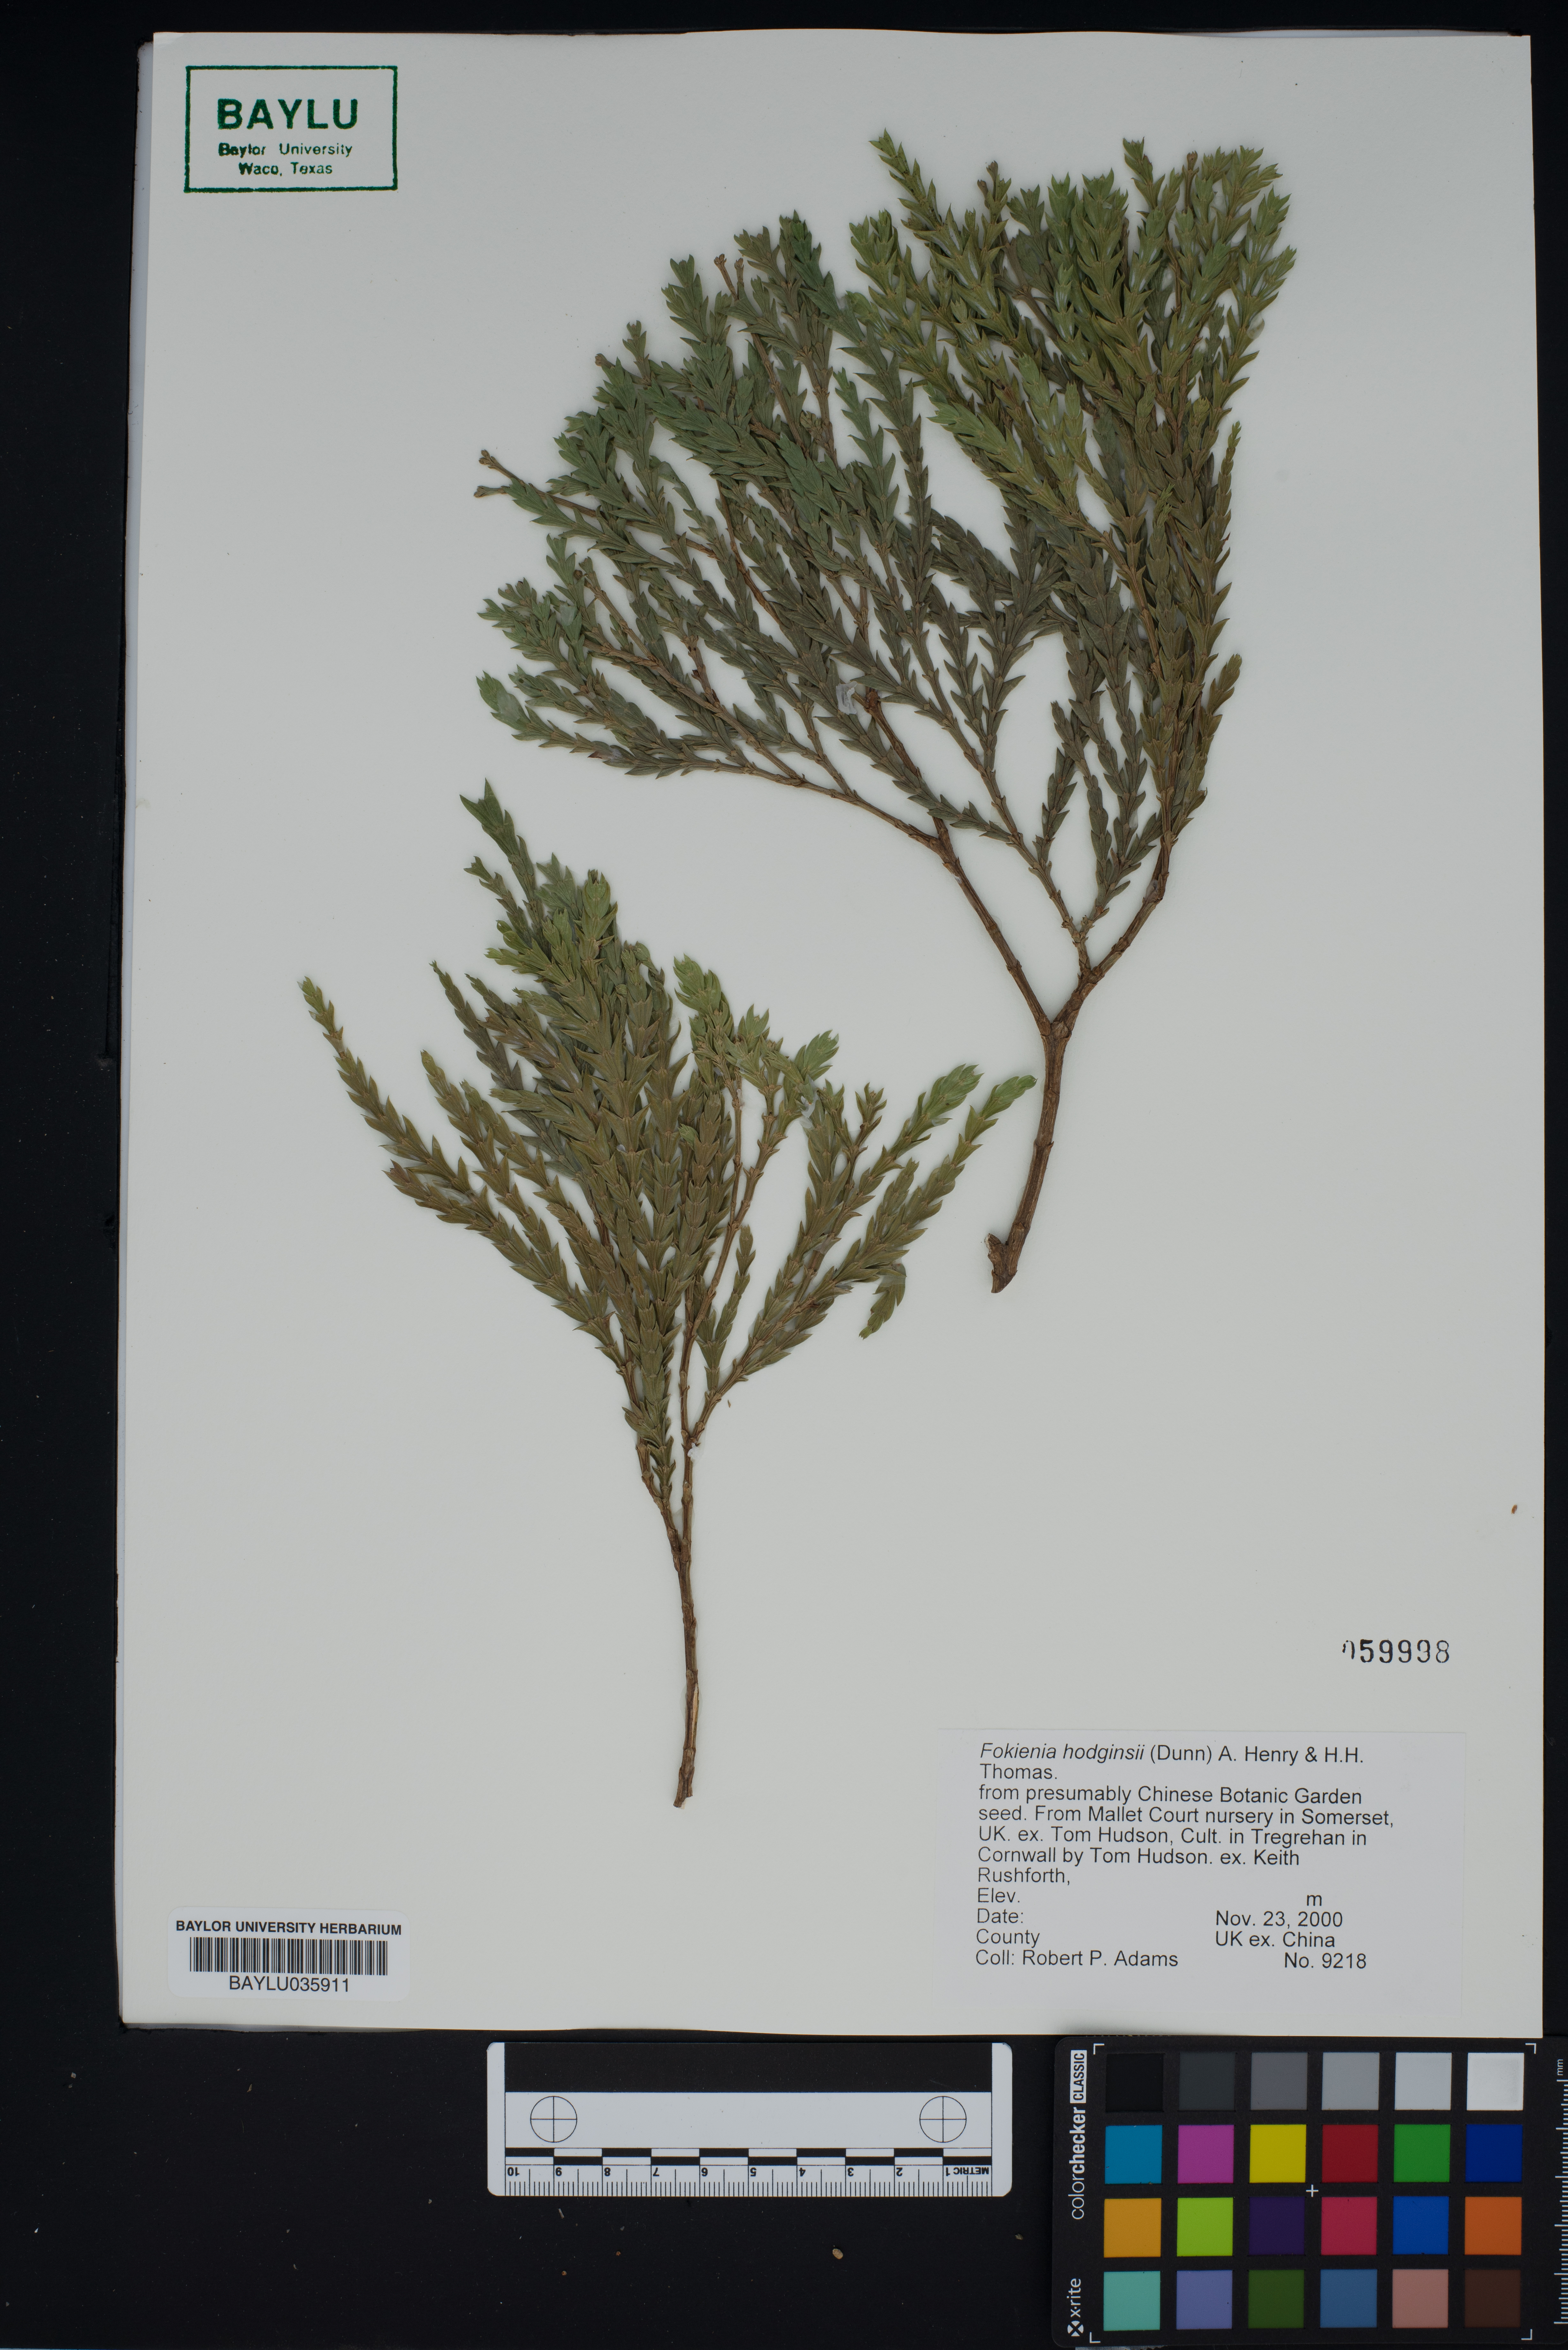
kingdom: Plantae
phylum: Tracheophyta
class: Pinopsida
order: Pinales
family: Cupressaceae
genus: Fokienia
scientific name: Fokienia hodginsii
